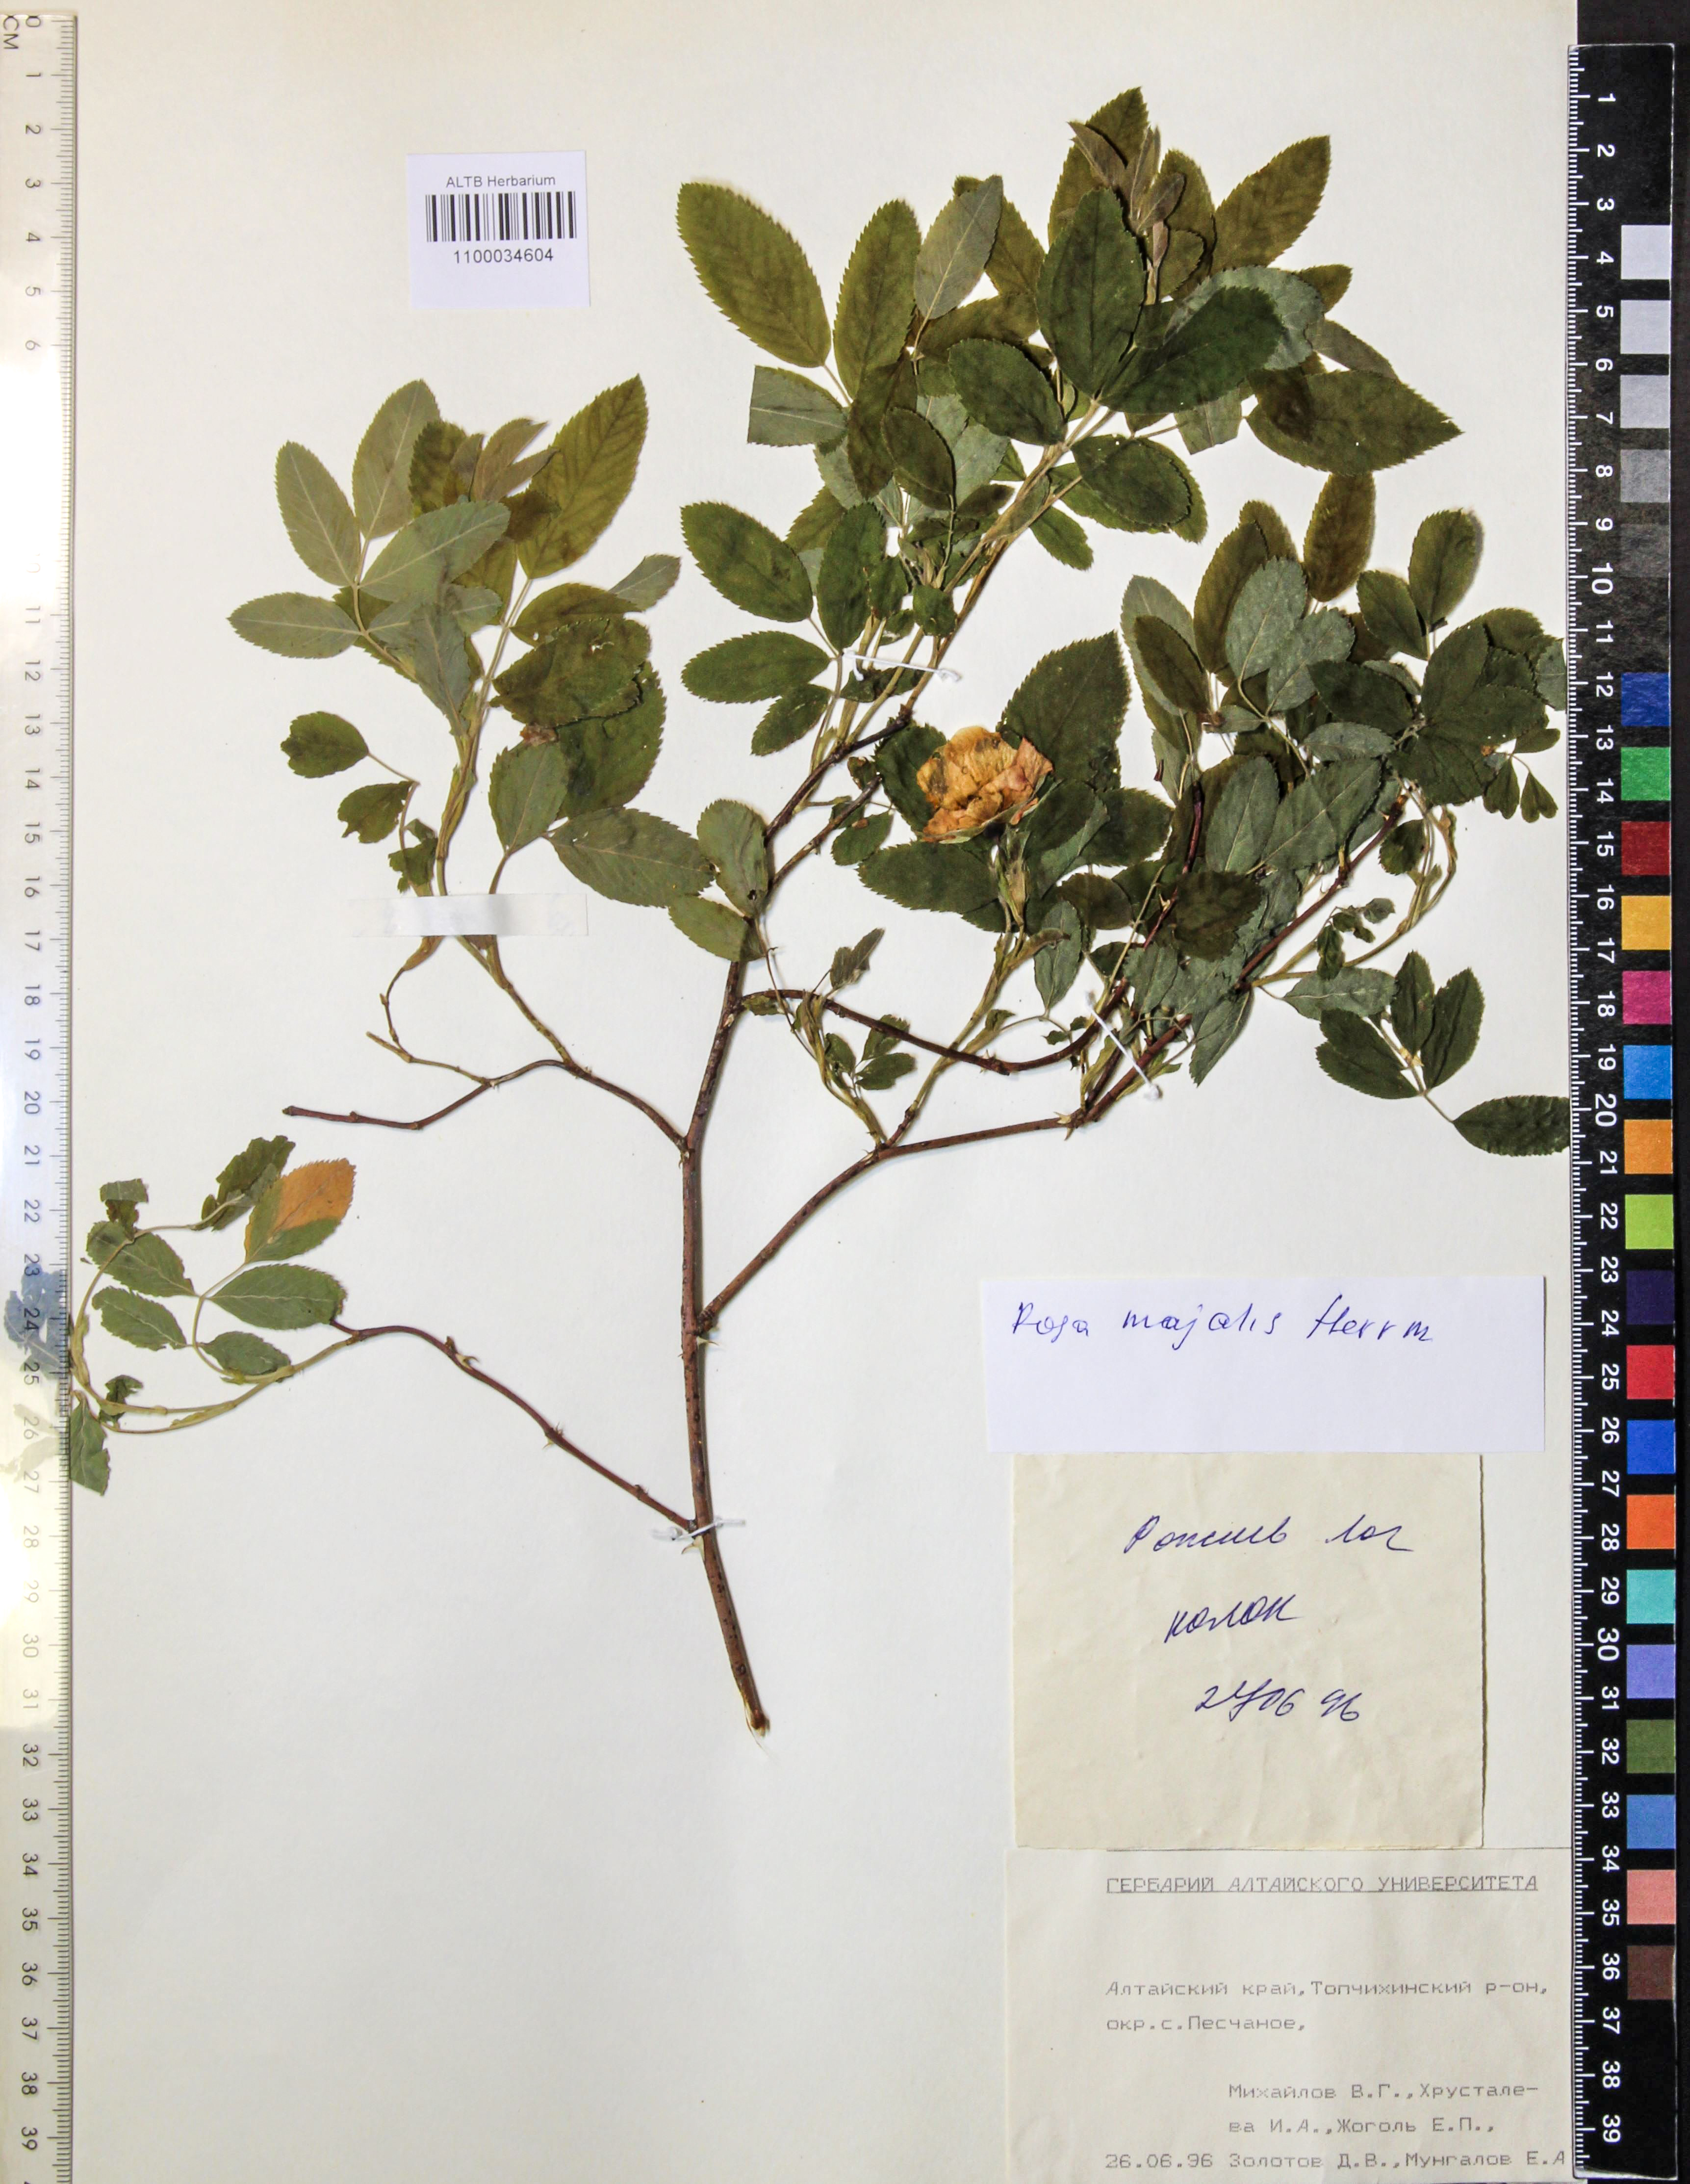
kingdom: Plantae
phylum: Tracheophyta
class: Magnoliopsida
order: Rosales
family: Rosaceae
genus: Rosa
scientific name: Rosa majalis
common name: Cinnamon rose
